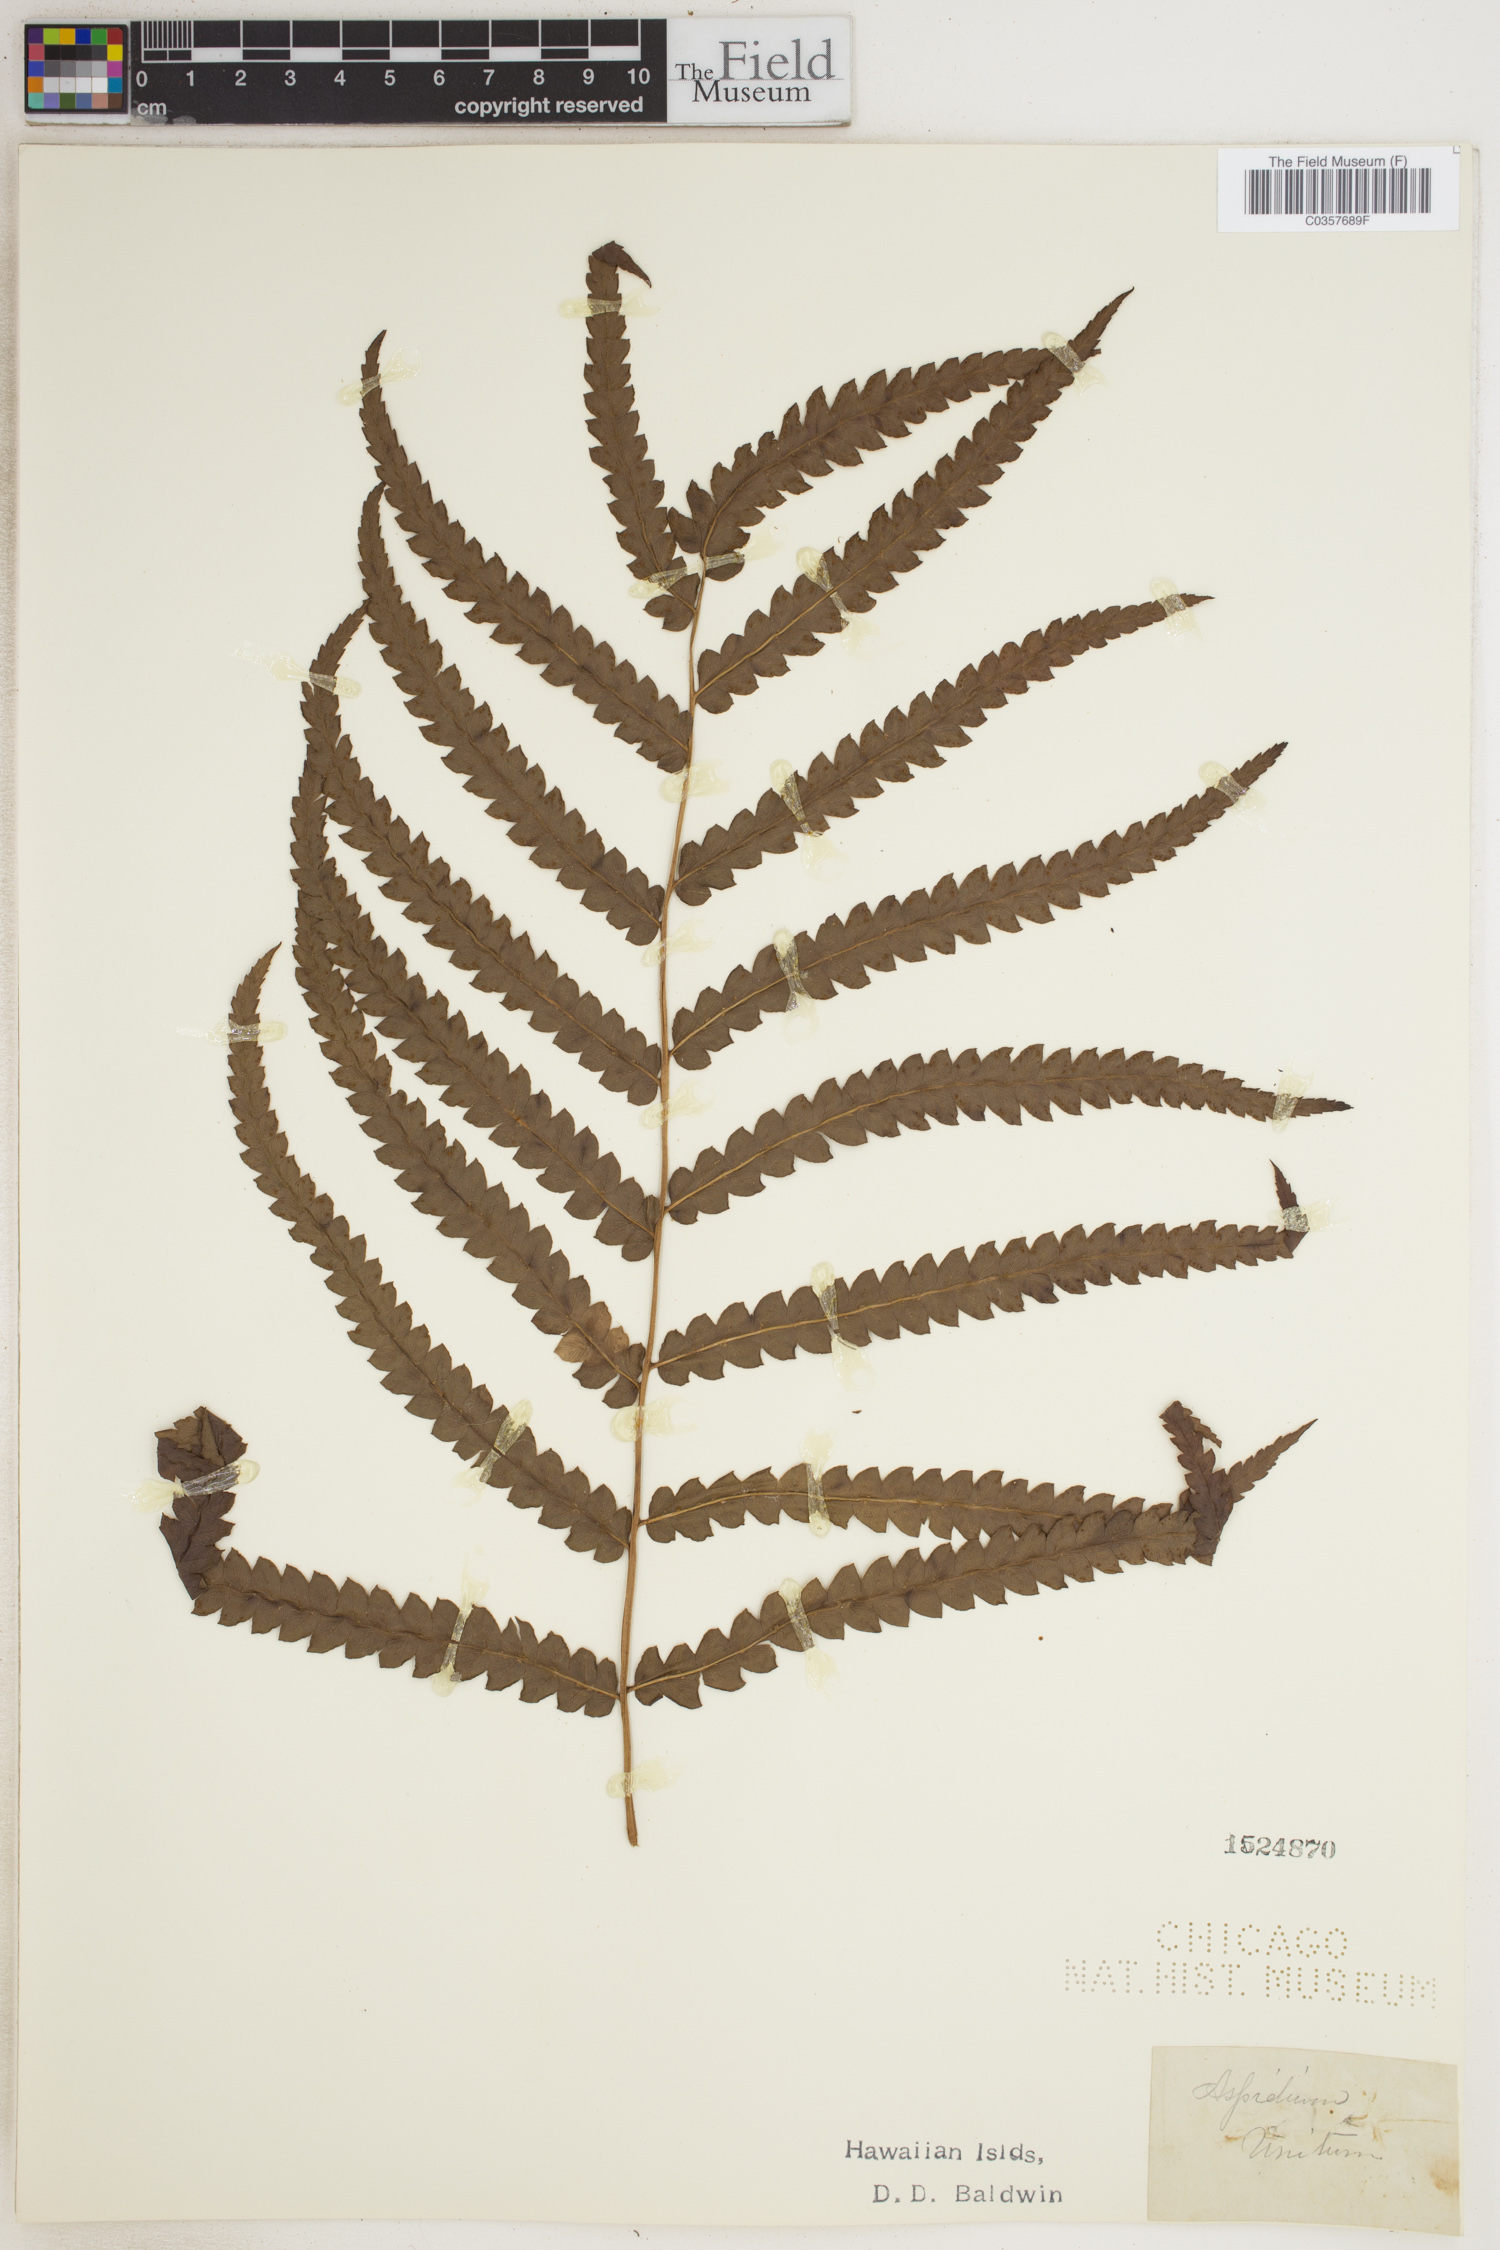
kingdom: Plantae
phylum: Tracheophyta
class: Polypodiopsida
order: Polypodiales
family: Tectariaceae
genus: Tectaria
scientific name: Tectaria Aspidium spec
